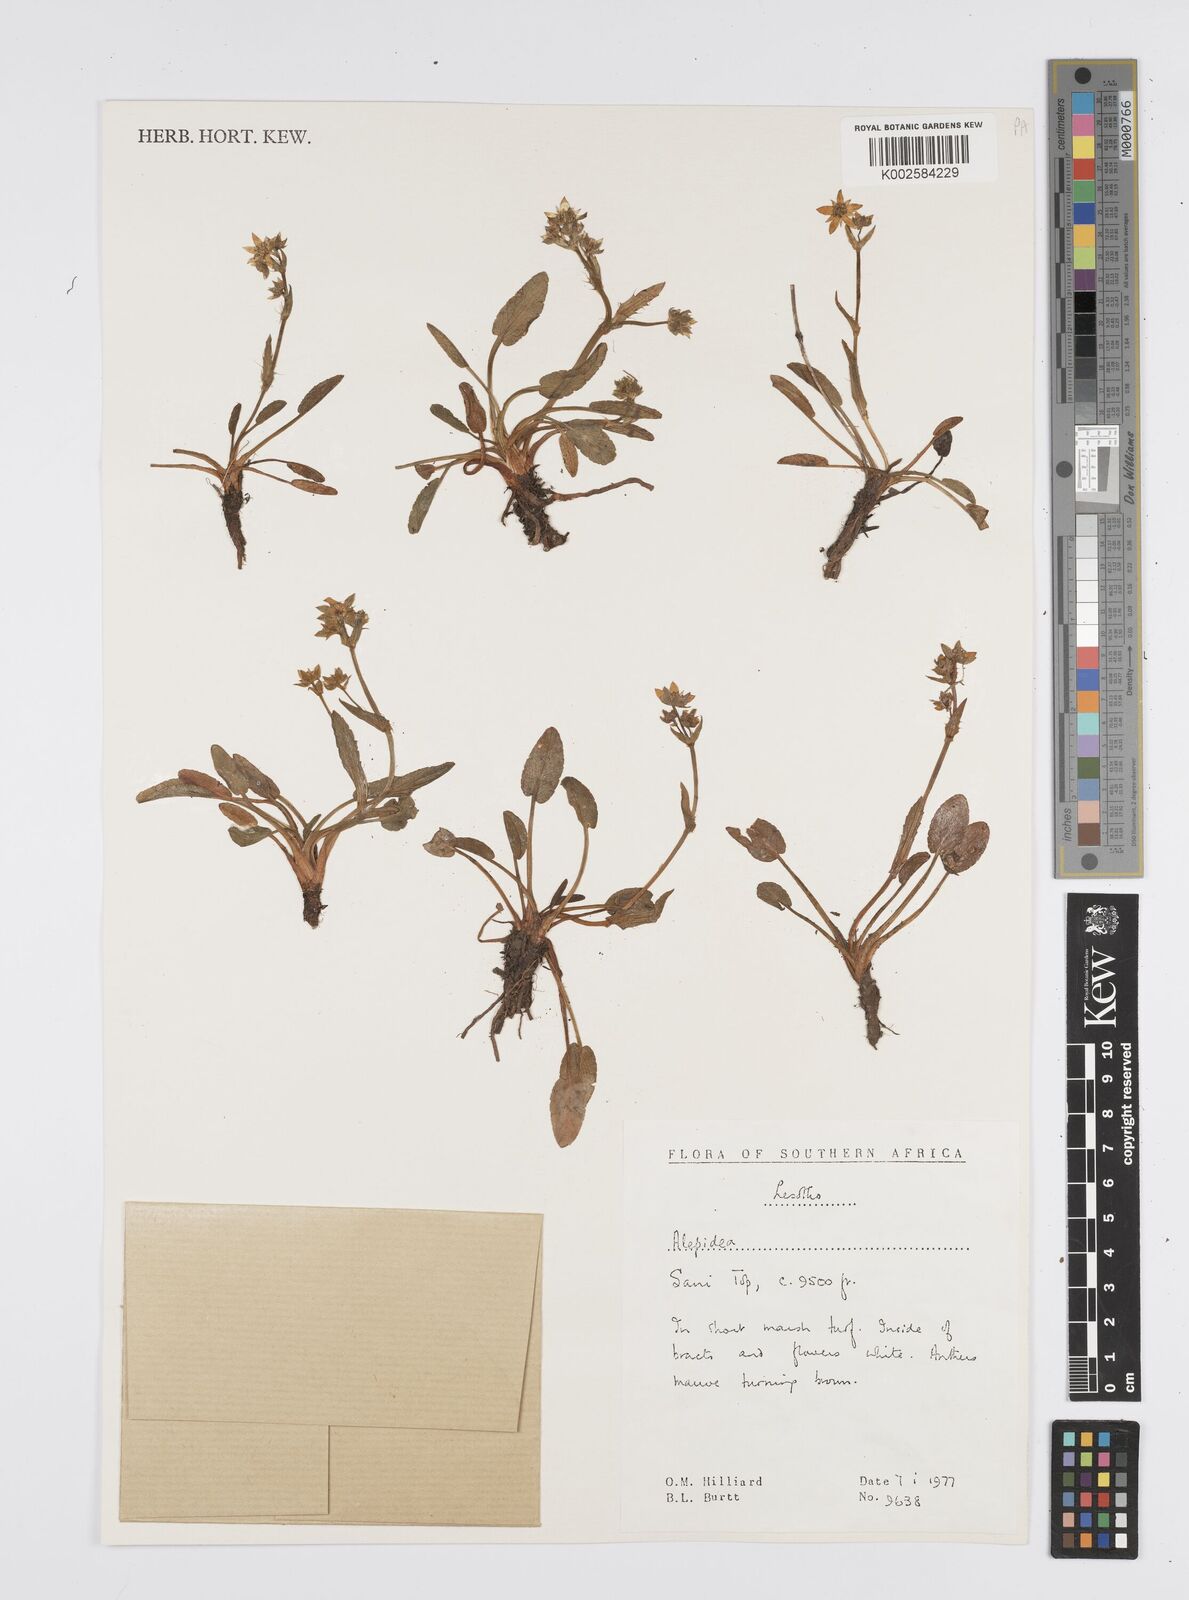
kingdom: Plantae
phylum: Tracheophyta
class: Magnoliopsida
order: Apiales
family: Apiaceae
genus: Alepidea
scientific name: Alepidea pusilla
